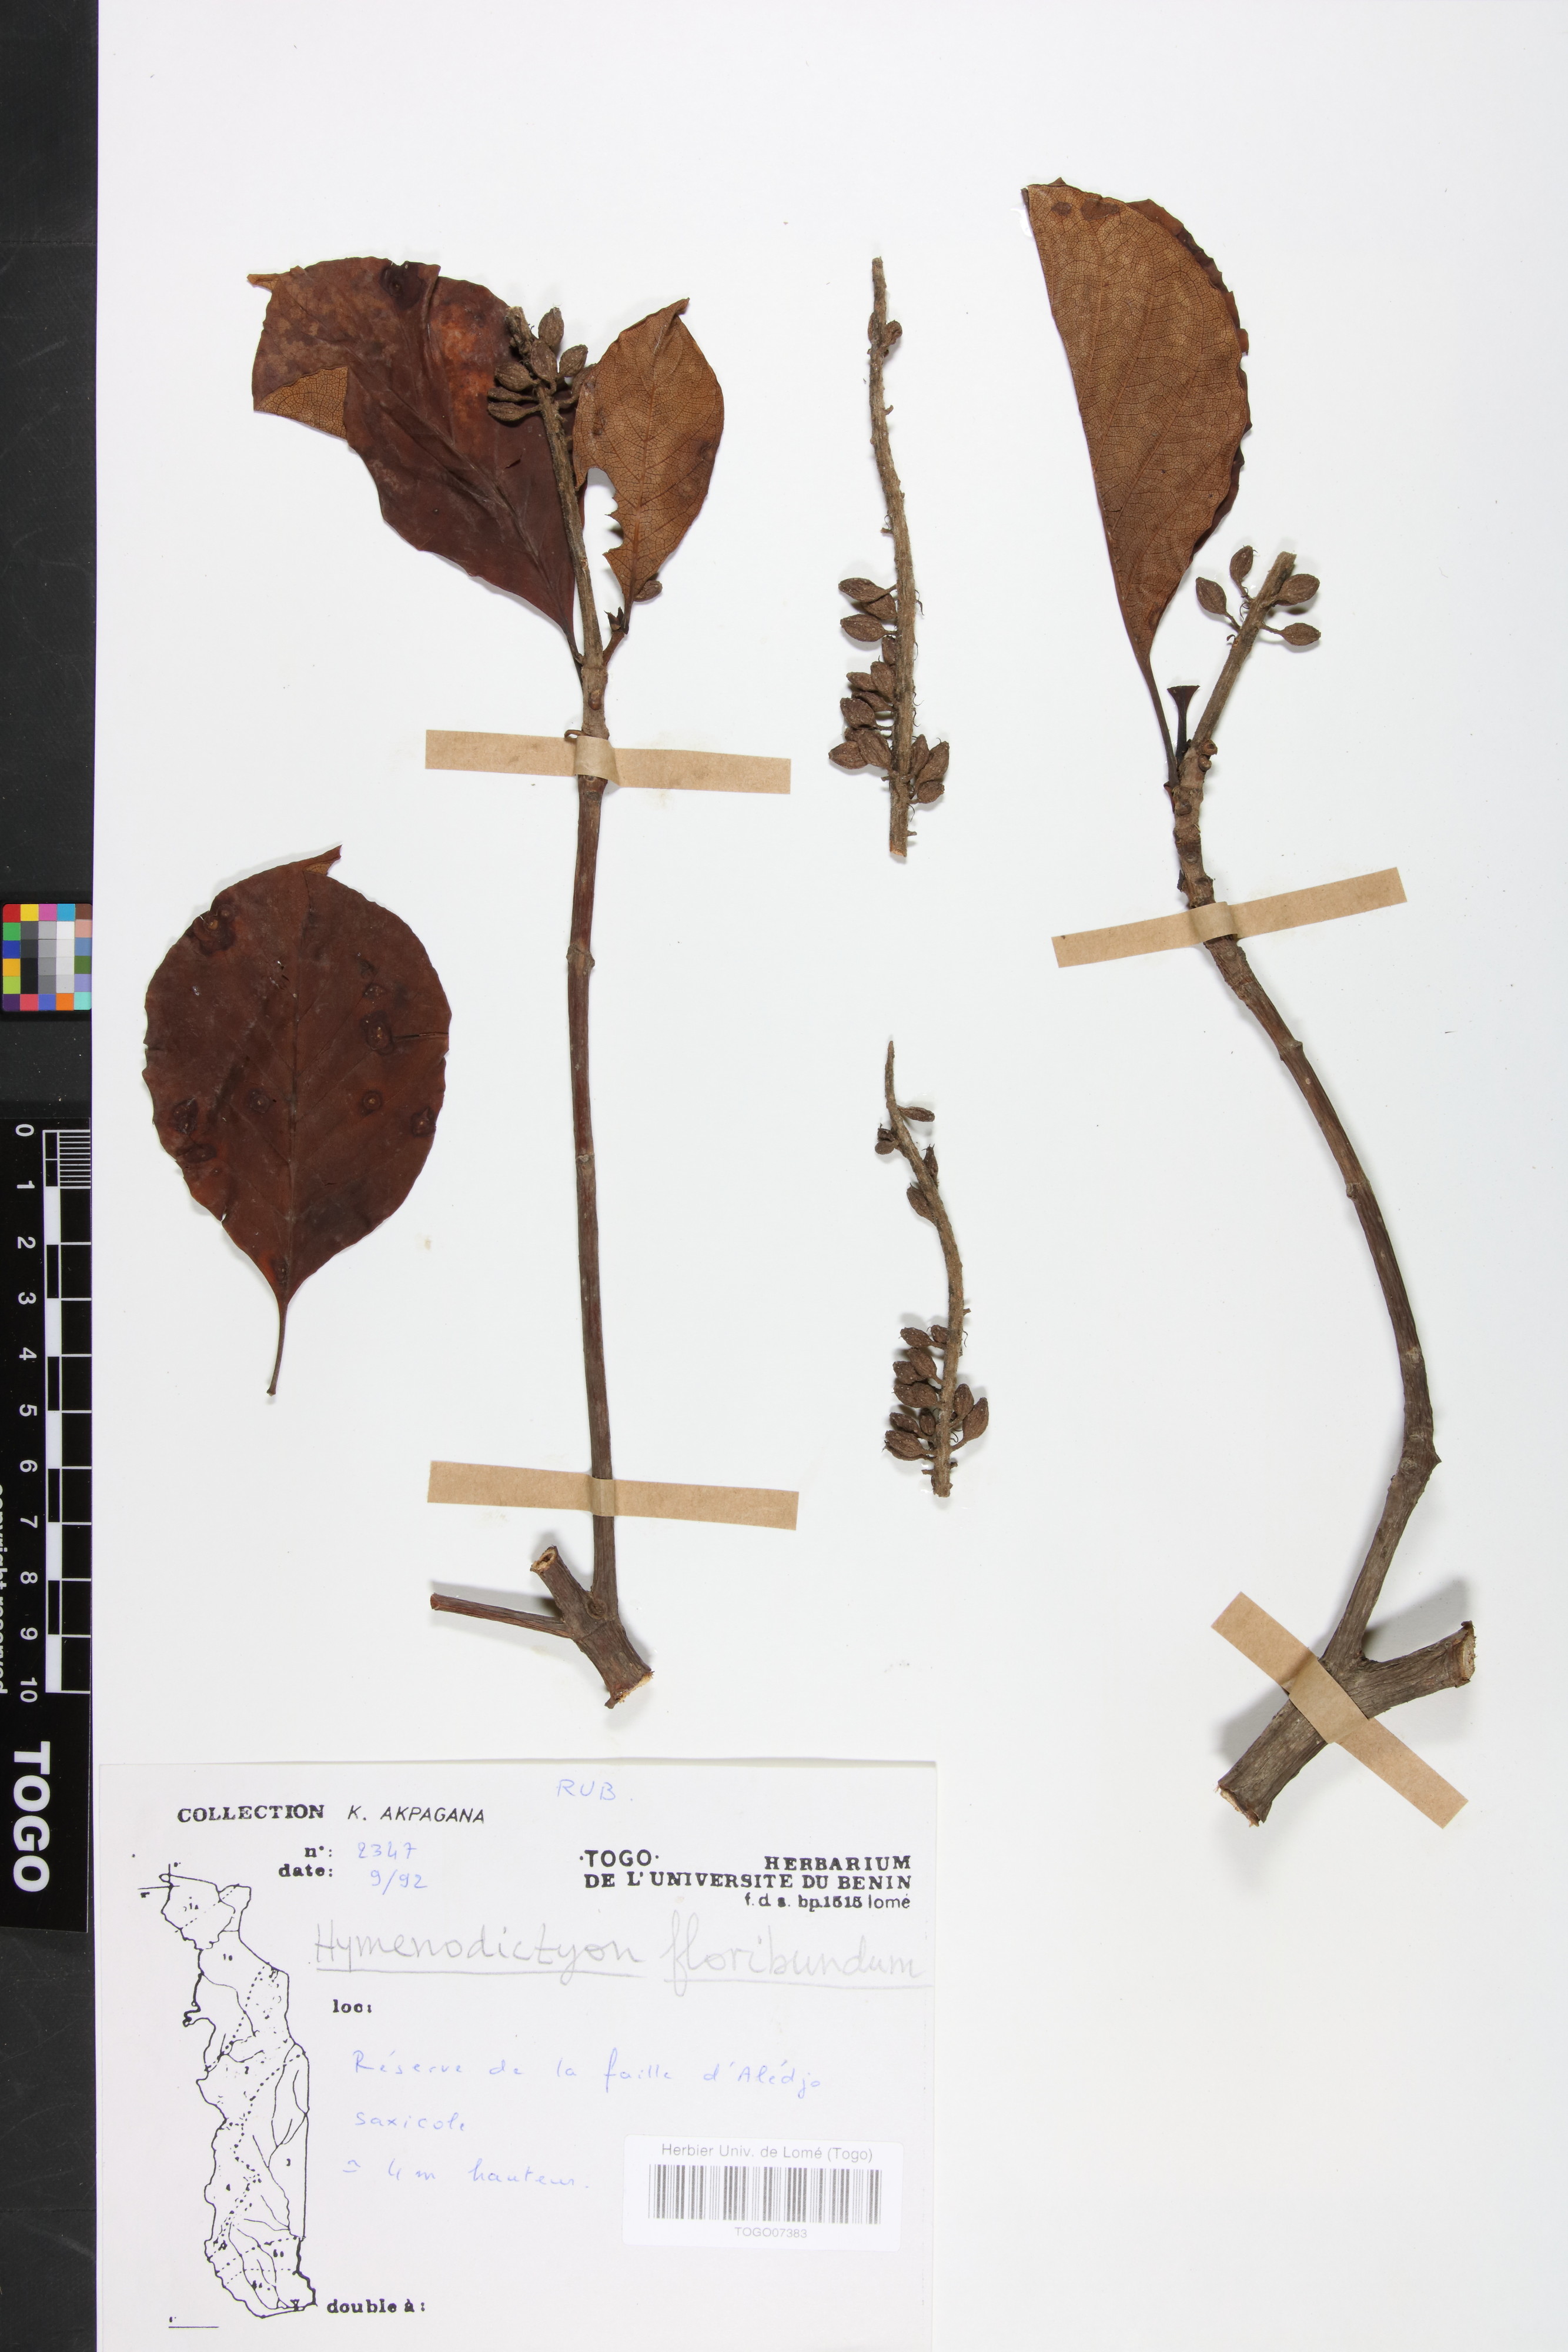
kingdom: Plantae
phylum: Tracheophyta
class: Magnoliopsida
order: Gentianales
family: Rubiaceae
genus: Hymenodictyon
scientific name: Hymenodictyon floribundum
